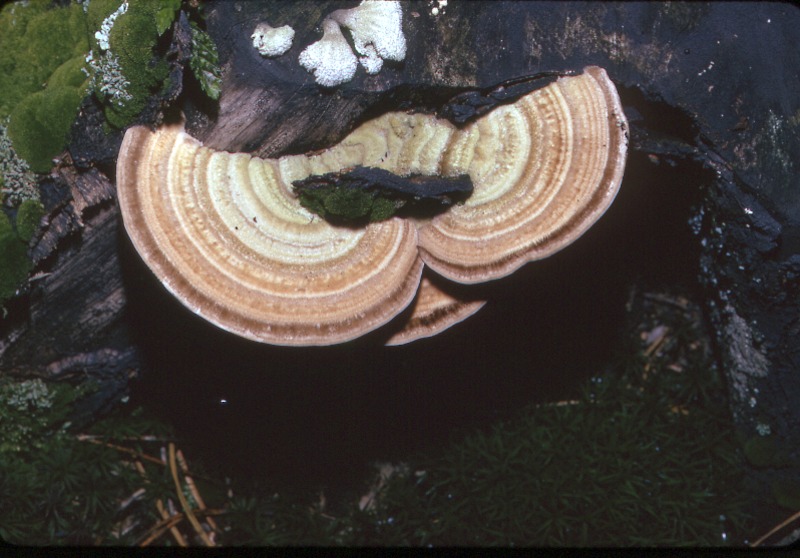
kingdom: Fungi
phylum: Basidiomycota
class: Agaricomycetes
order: Polyporales
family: Polyporaceae
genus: Lenzites
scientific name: Lenzites betulinus
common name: Birch mazegill
